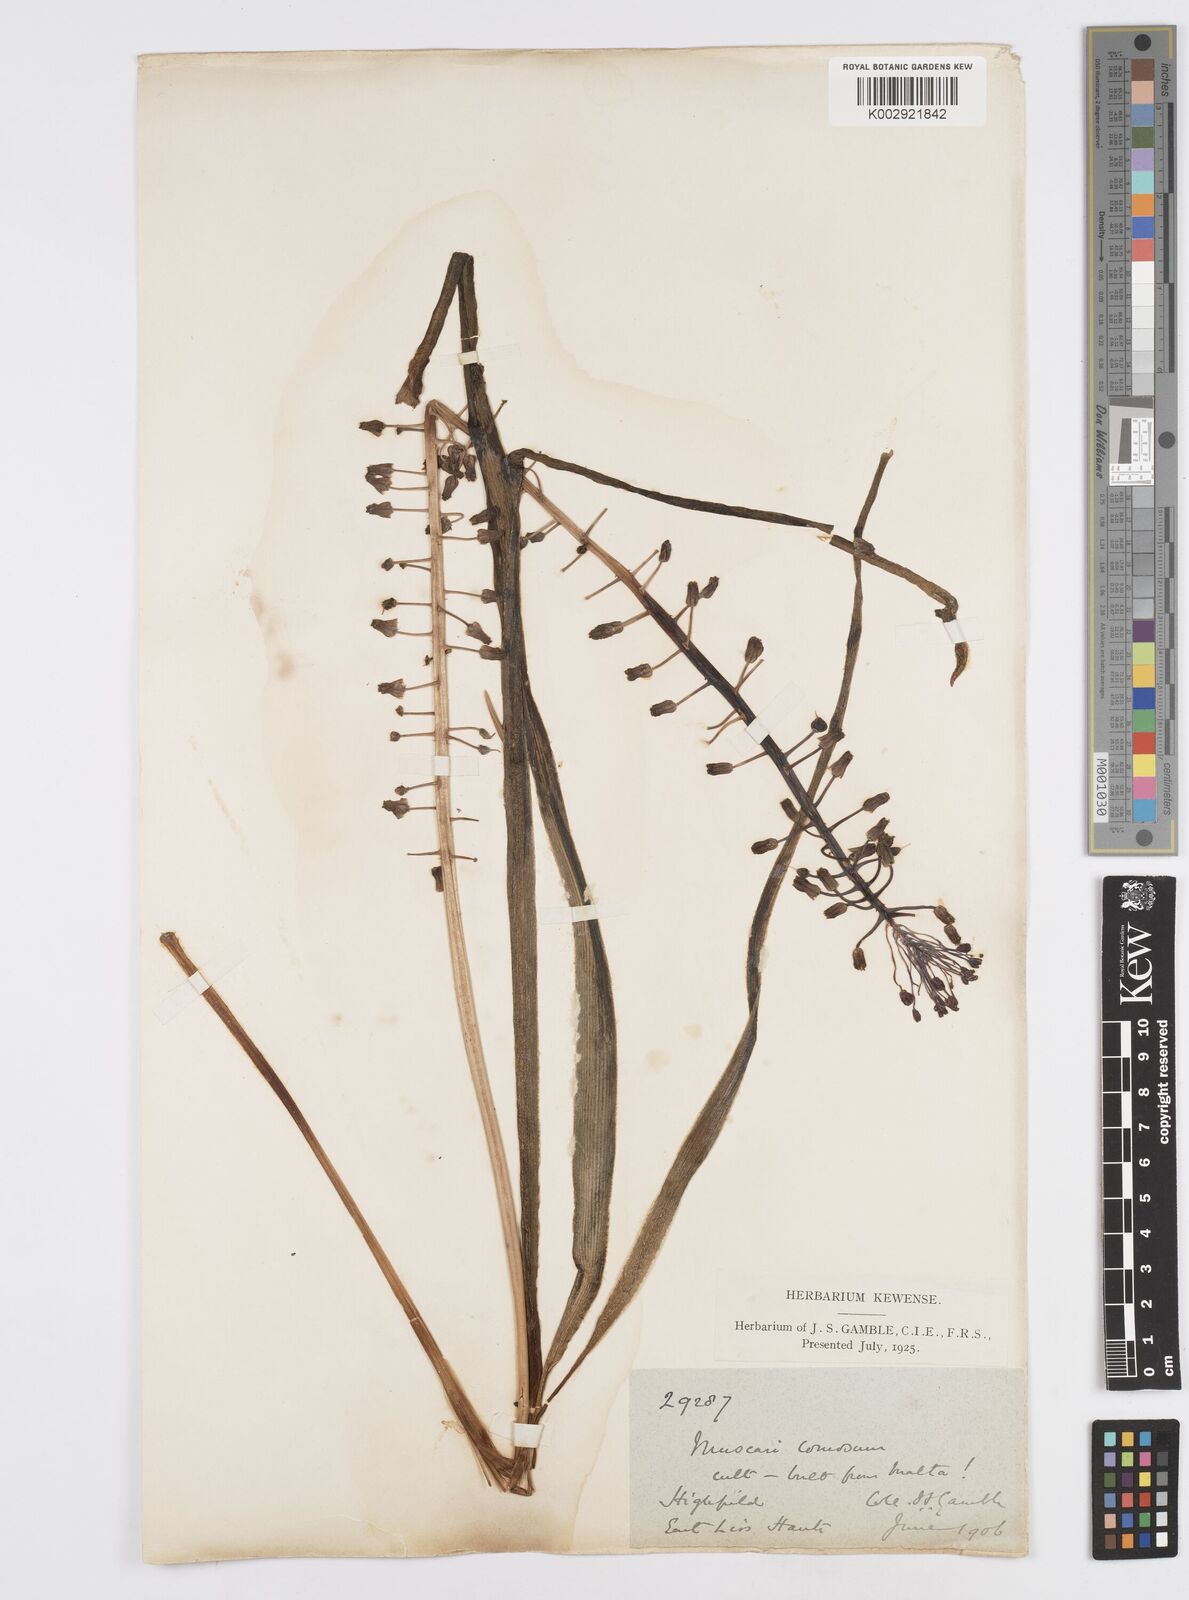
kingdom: Plantae
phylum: Tracheophyta
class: Liliopsida
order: Asparagales
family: Asparagaceae
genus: Muscari
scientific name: Muscari comosum
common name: Tassel hyacinth
